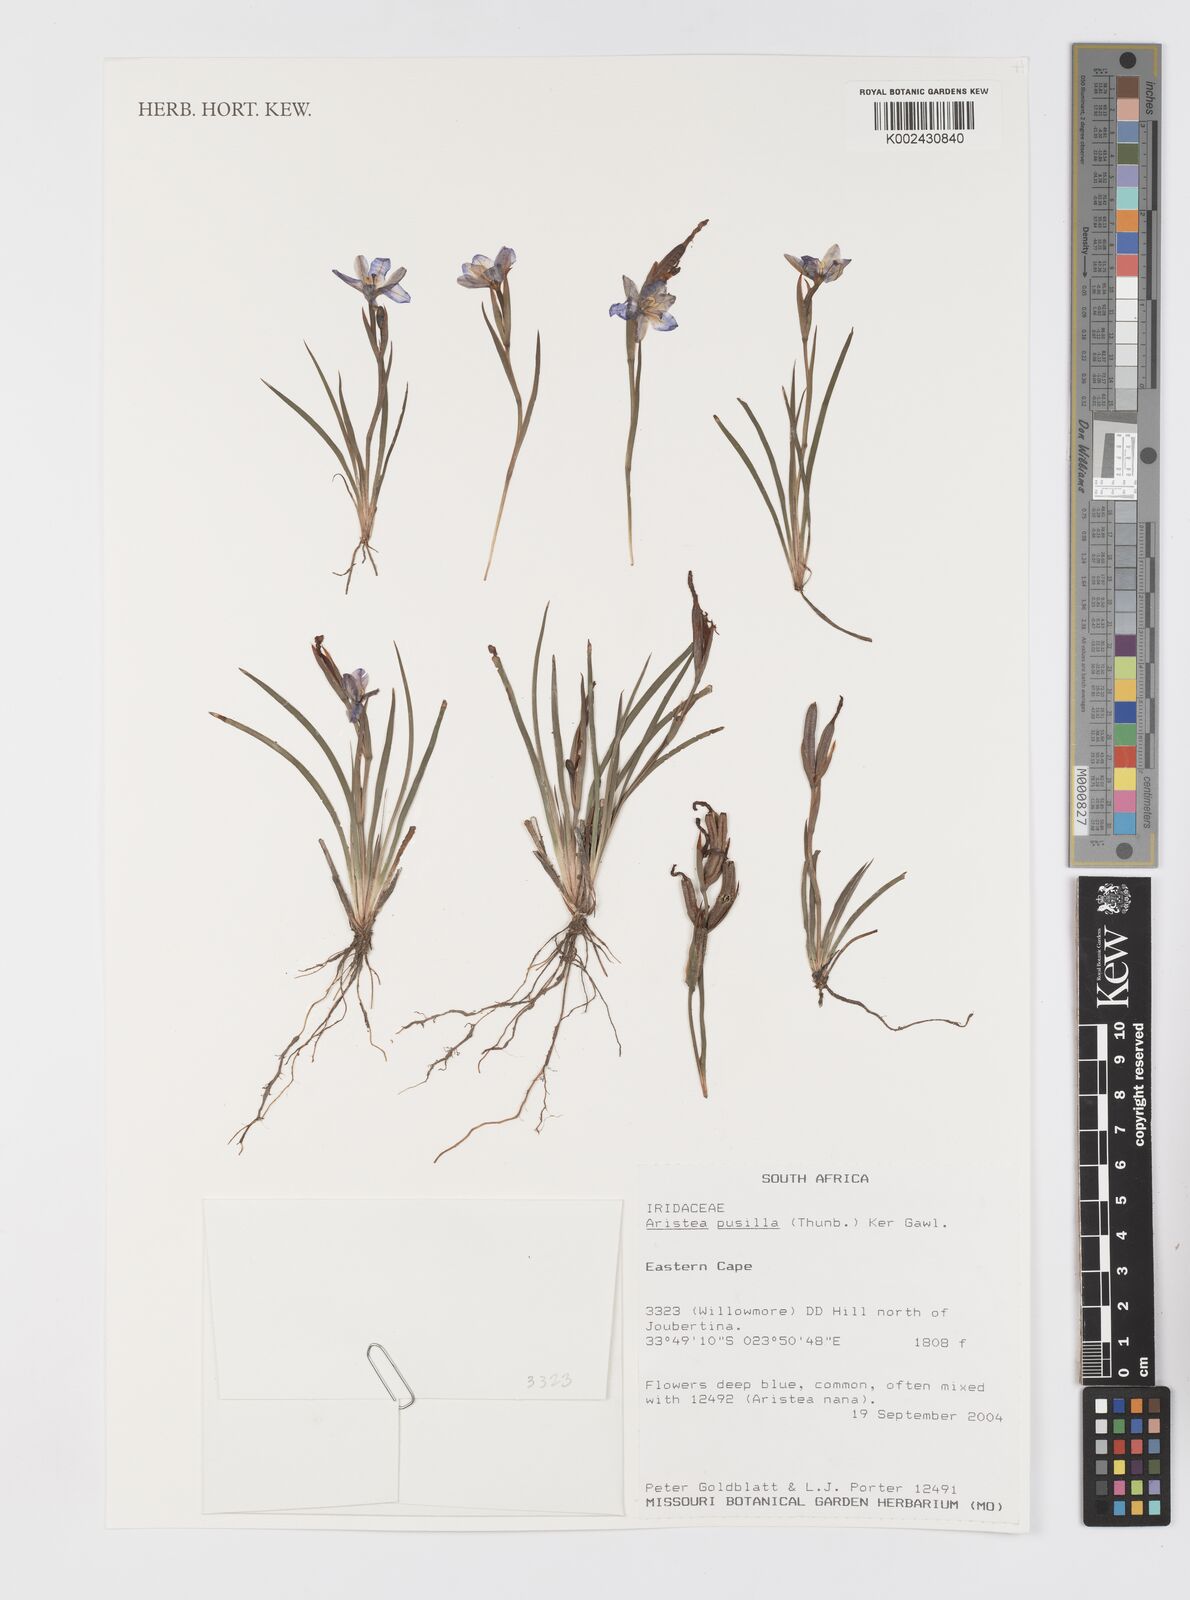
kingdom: Plantae
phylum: Tracheophyta
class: Liliopsida
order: Asparagales
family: Iridaceae
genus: Aristea
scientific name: Aristea pusilla
